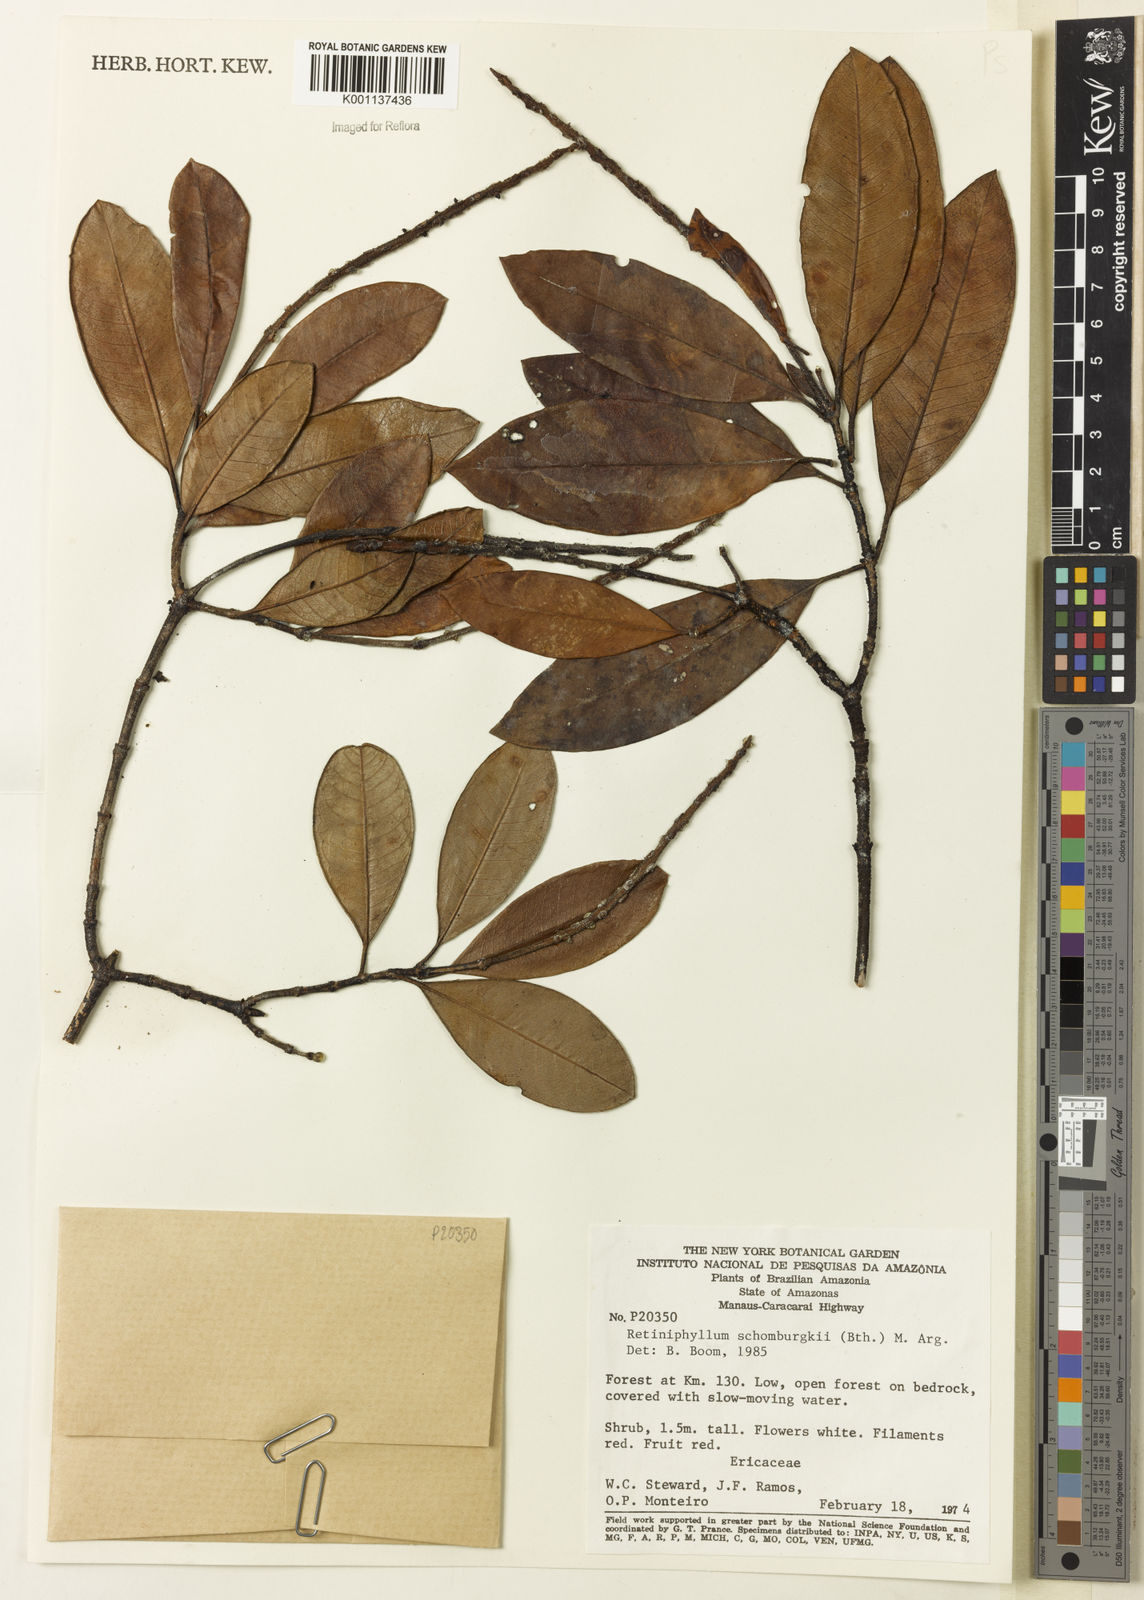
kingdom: Plantae
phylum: Tracheophyta
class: Magnoliopsida
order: Gentianales
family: Rubiaceae
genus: Retiniphyllum
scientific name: Retiniphyllum
